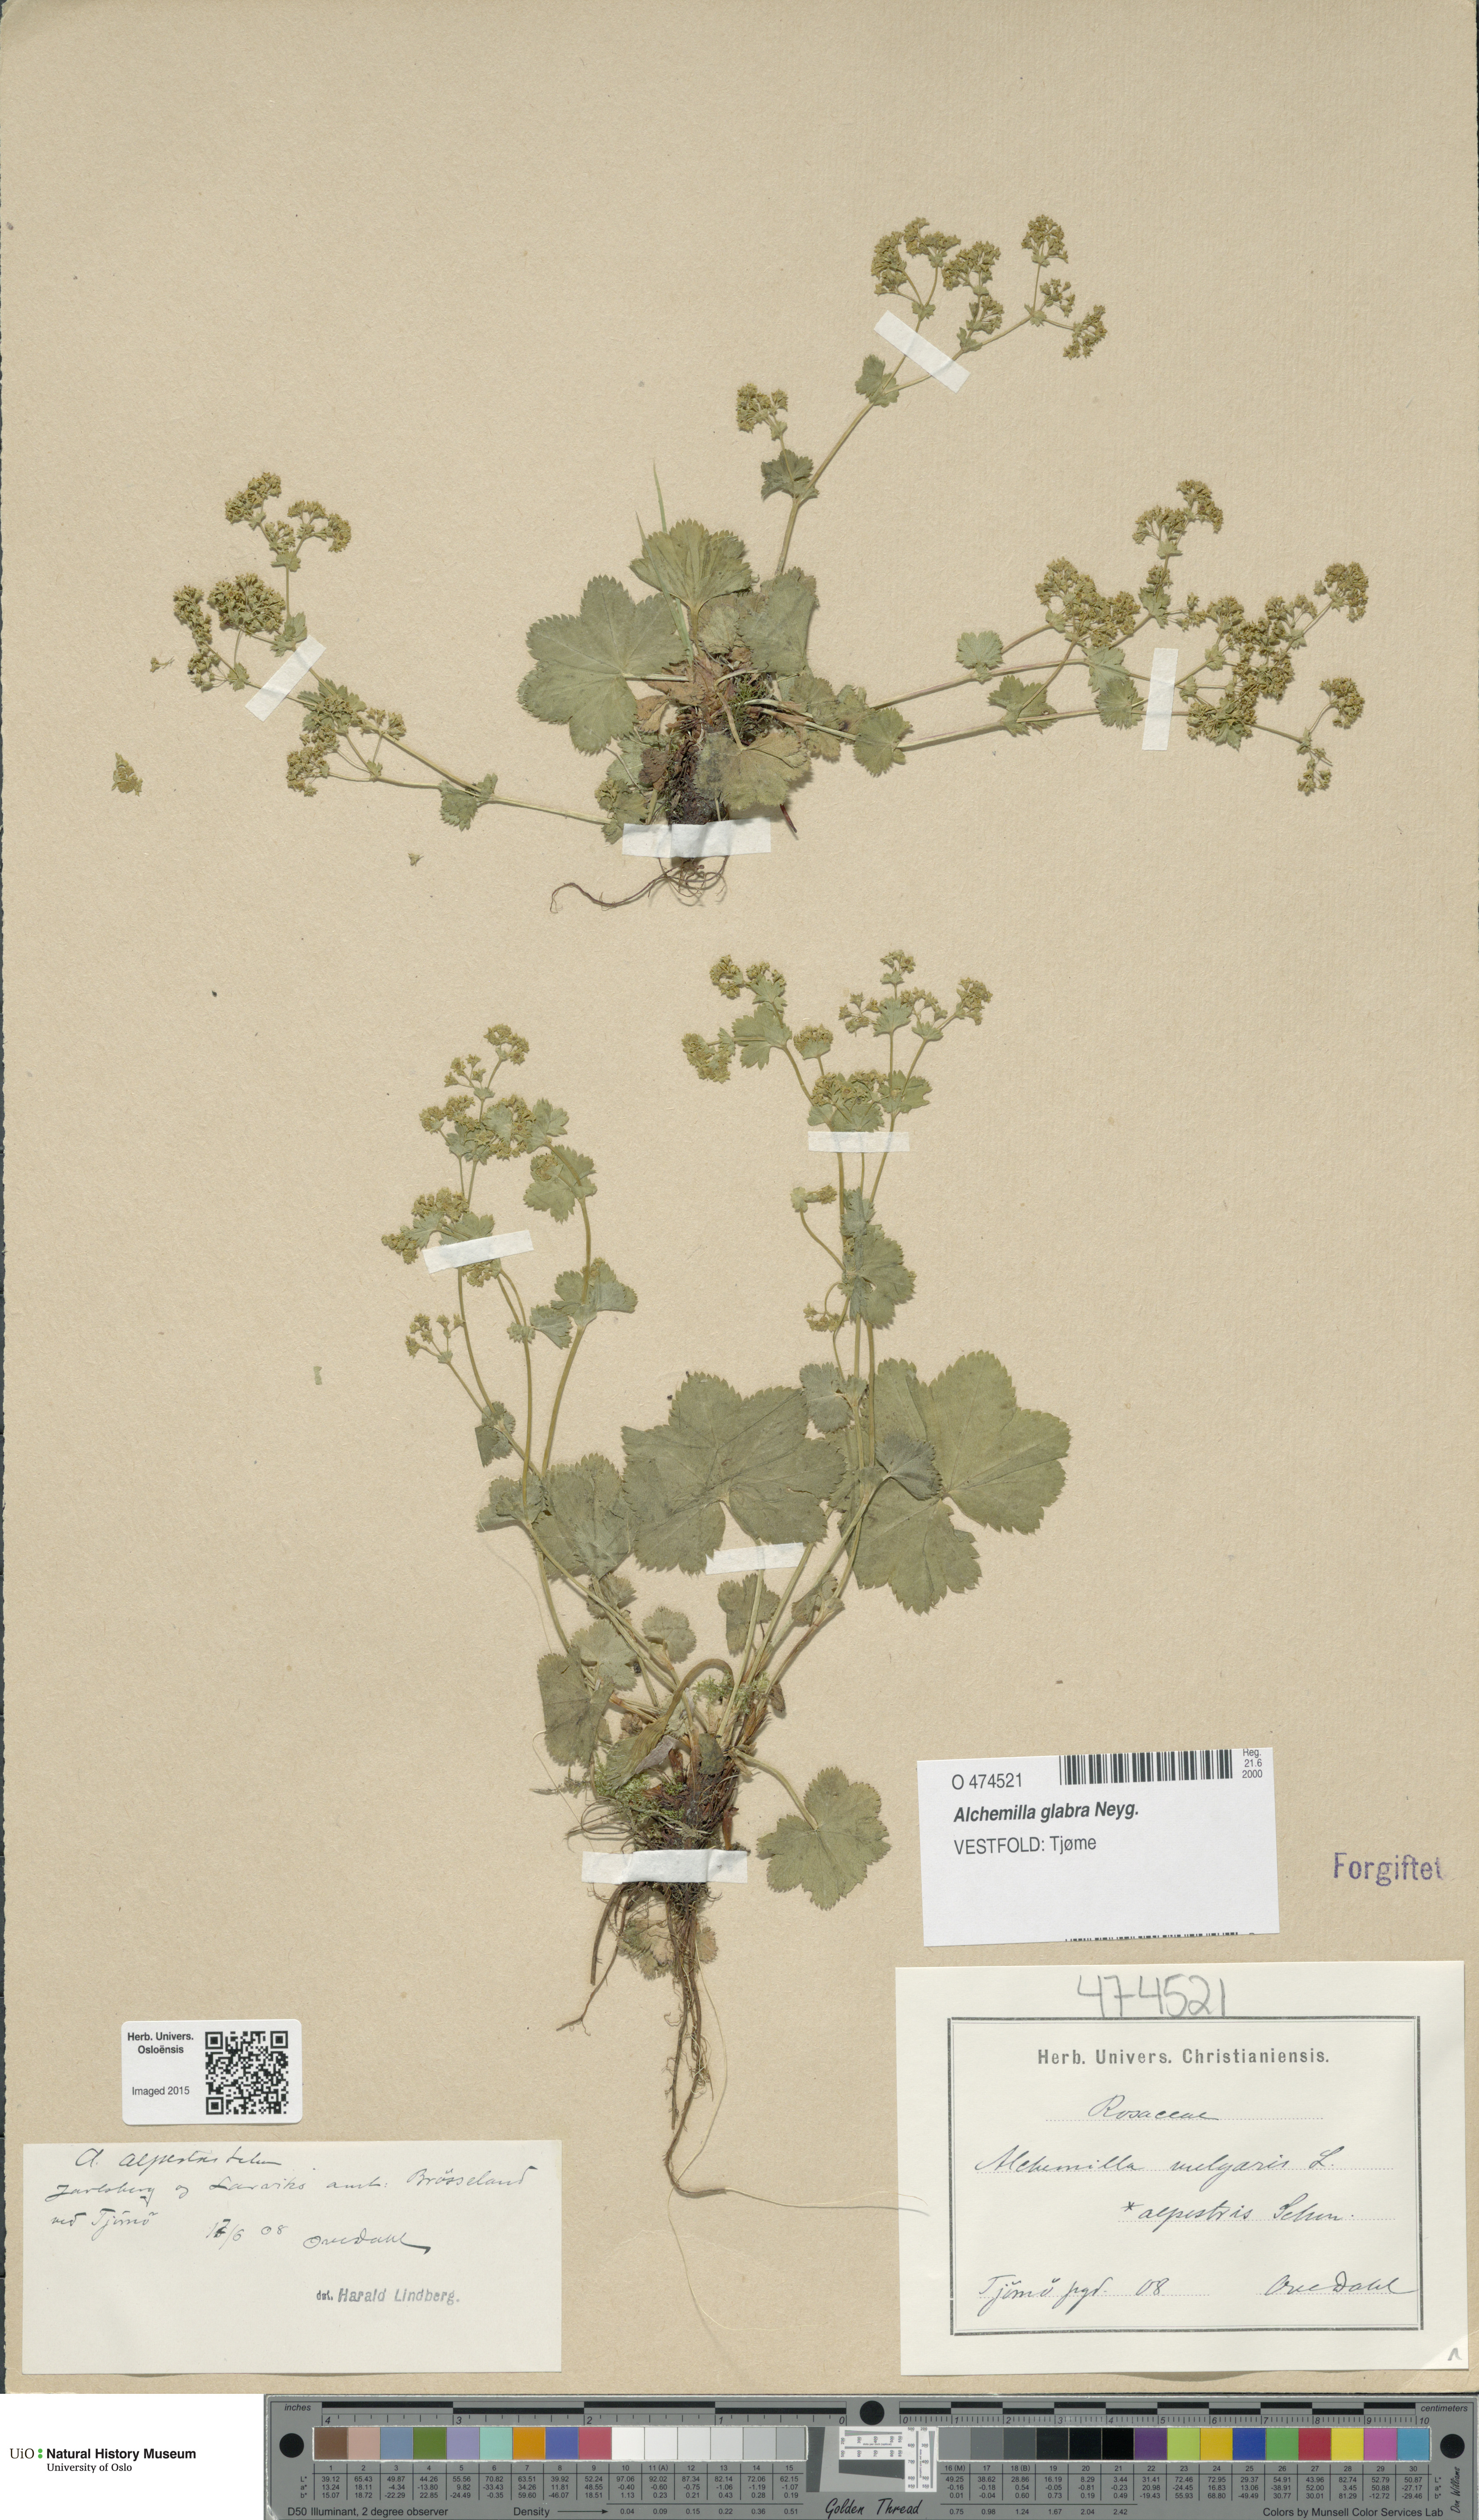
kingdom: Plantae
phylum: Tracheophyta
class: Magnoliopsida
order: Rosales
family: Rosaceae
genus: Alchemilla
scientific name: Alchemilla glabra
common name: Smooth lady's-mantle
